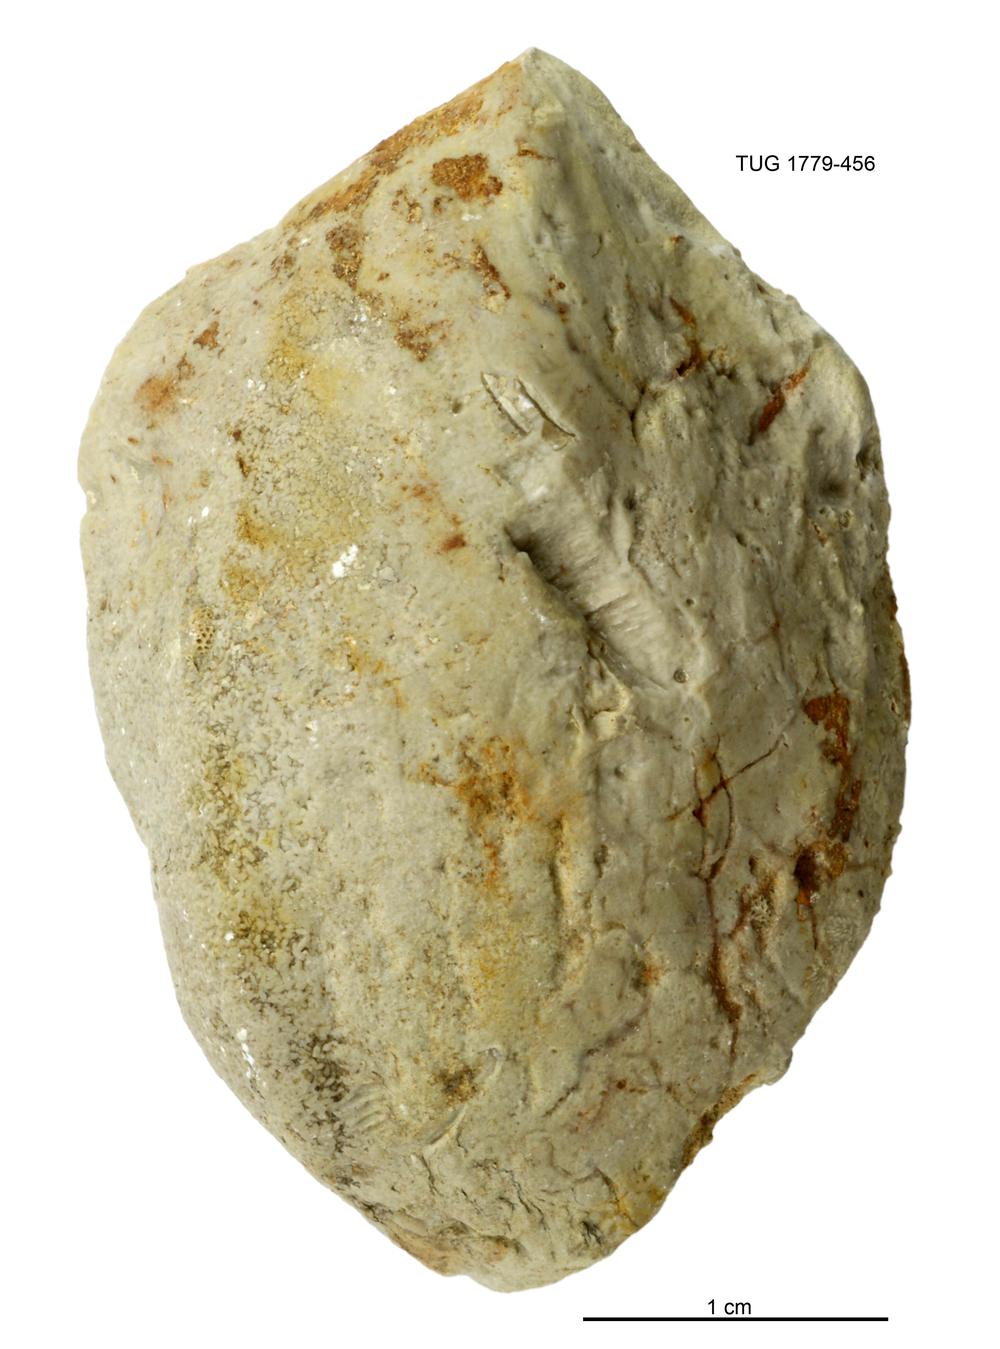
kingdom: Animalia
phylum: Mollusca
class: Bivalvia
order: Cyrtodontida
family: Cyrtodontidae
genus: Cypricardites
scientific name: Cypricardites
